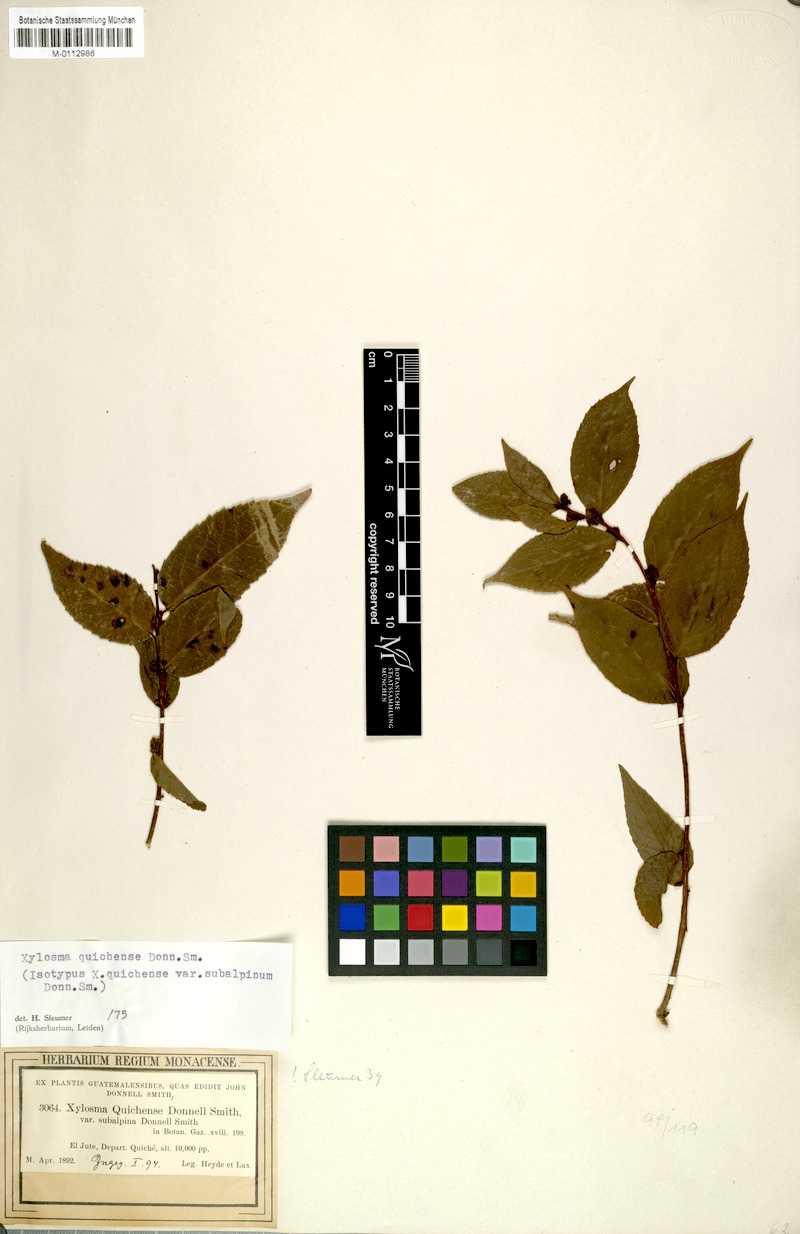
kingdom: Plantae
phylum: Tracheophyta
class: Magnoliopsida
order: Malpighiales
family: Salicaceae
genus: Xylosma
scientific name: Xylosma quichensis
